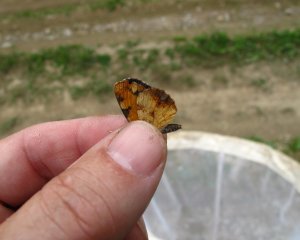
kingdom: Animalia
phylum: Arthropoda
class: Insecta
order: Lepidoptera
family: Nymphalidae
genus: Phyciodes
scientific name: Phyciodes tharos
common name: Northern Crescent
